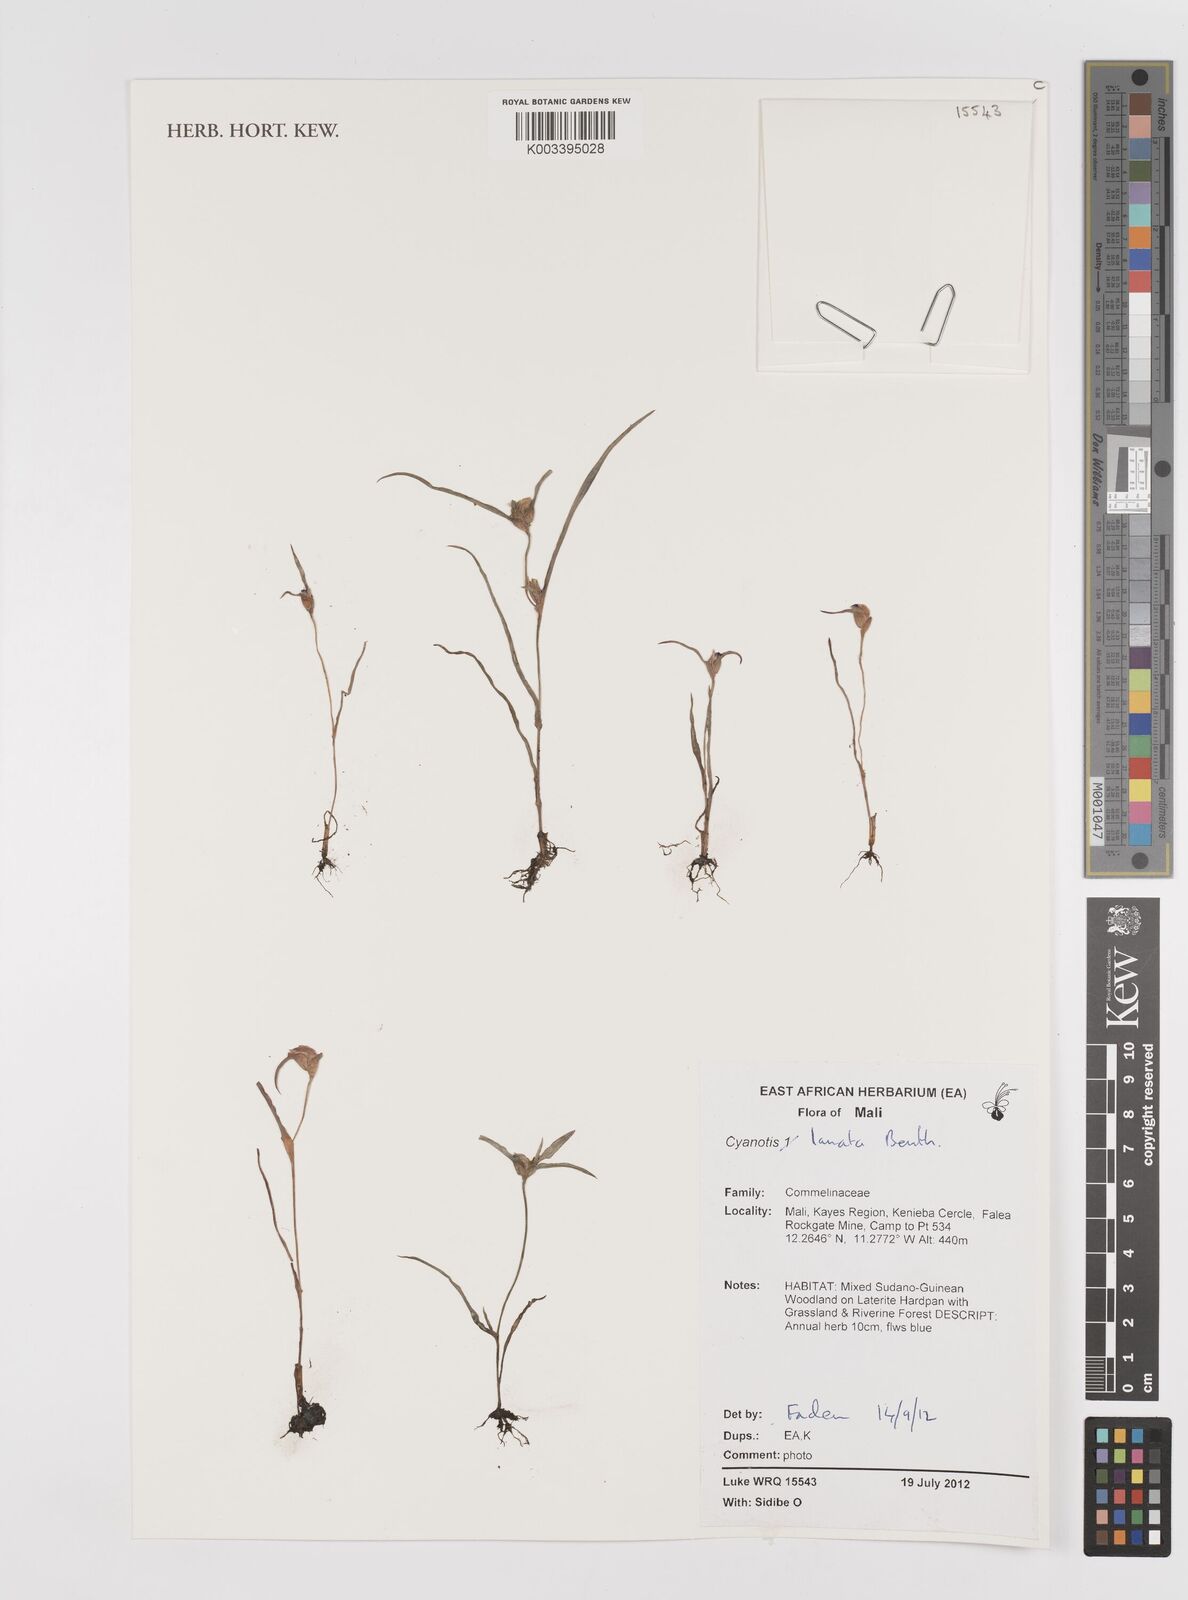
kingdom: Plantae
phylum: Tracheophyta
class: Liliopsida
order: Commelinales
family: Commelinaceae
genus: Cyanotis
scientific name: Cyanotis lanata
